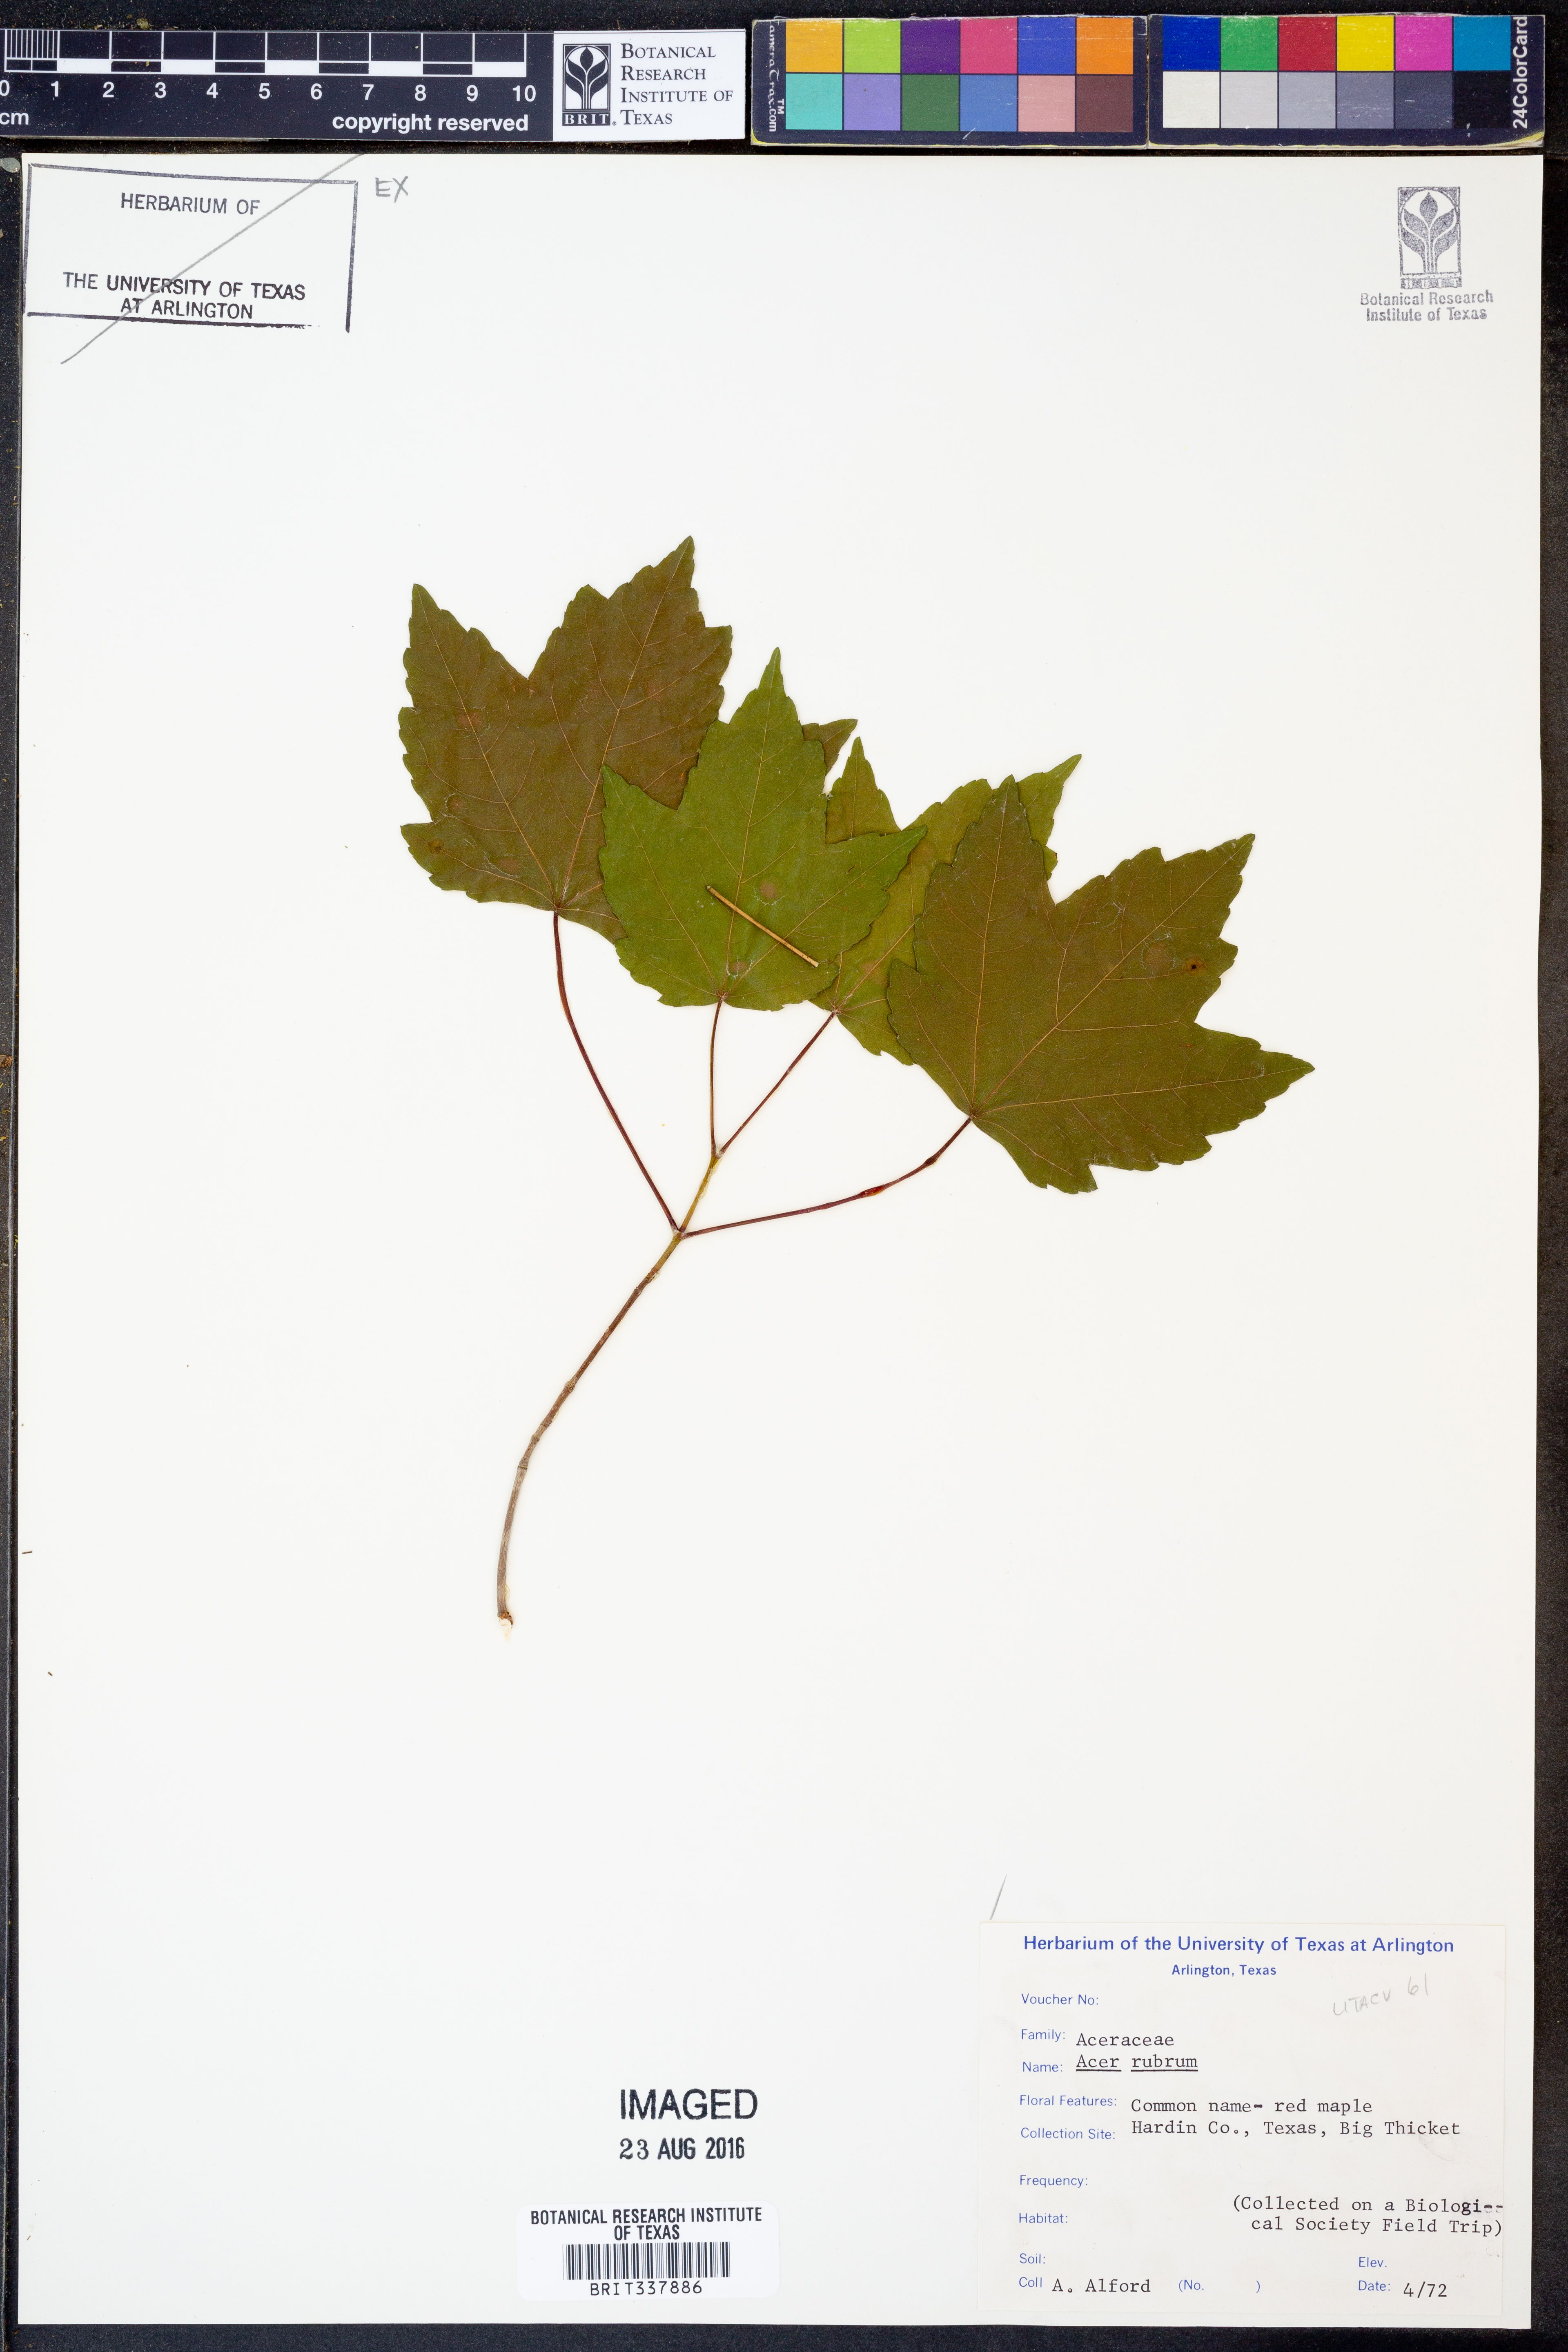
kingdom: Plantae
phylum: Tracheophyta
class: Magnoliopsida
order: Sapindales
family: Sapindaceae
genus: Acer
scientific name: Acer rubrum
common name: Red maple
